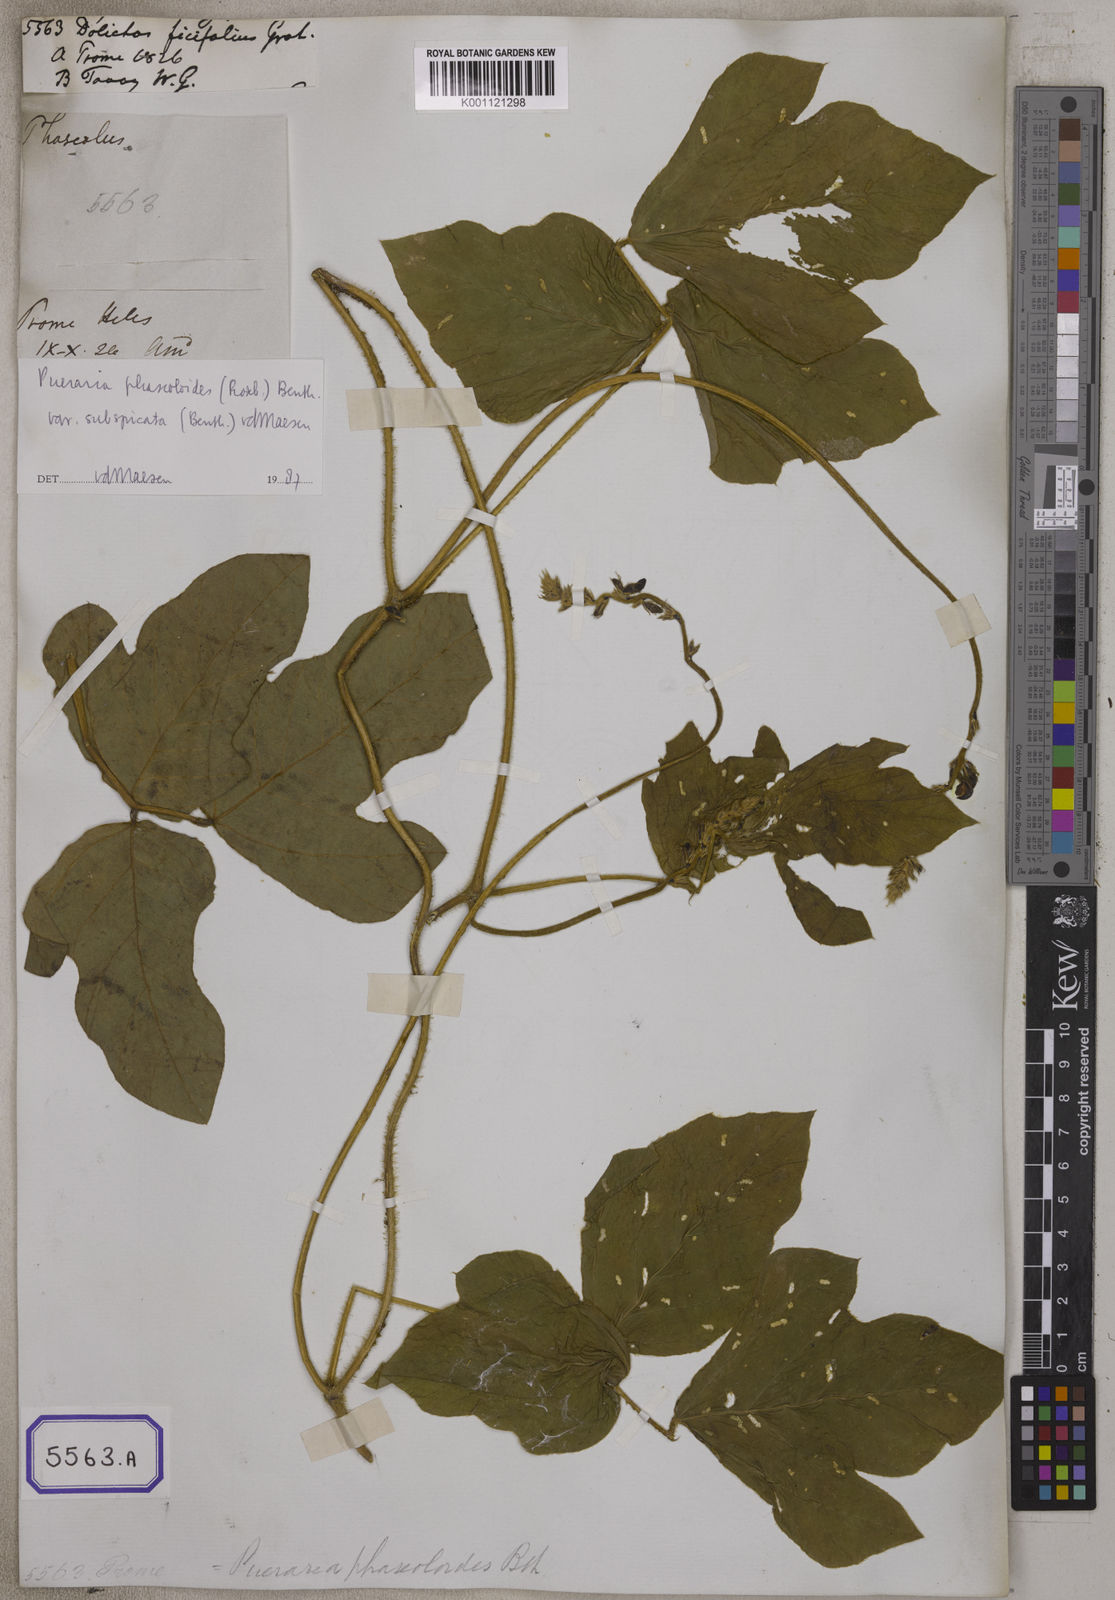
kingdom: Plantae
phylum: Tracheophyta
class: Magnoliopsida
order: Fabales
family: Fabaceae
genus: Dolichos
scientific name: Dolichos
